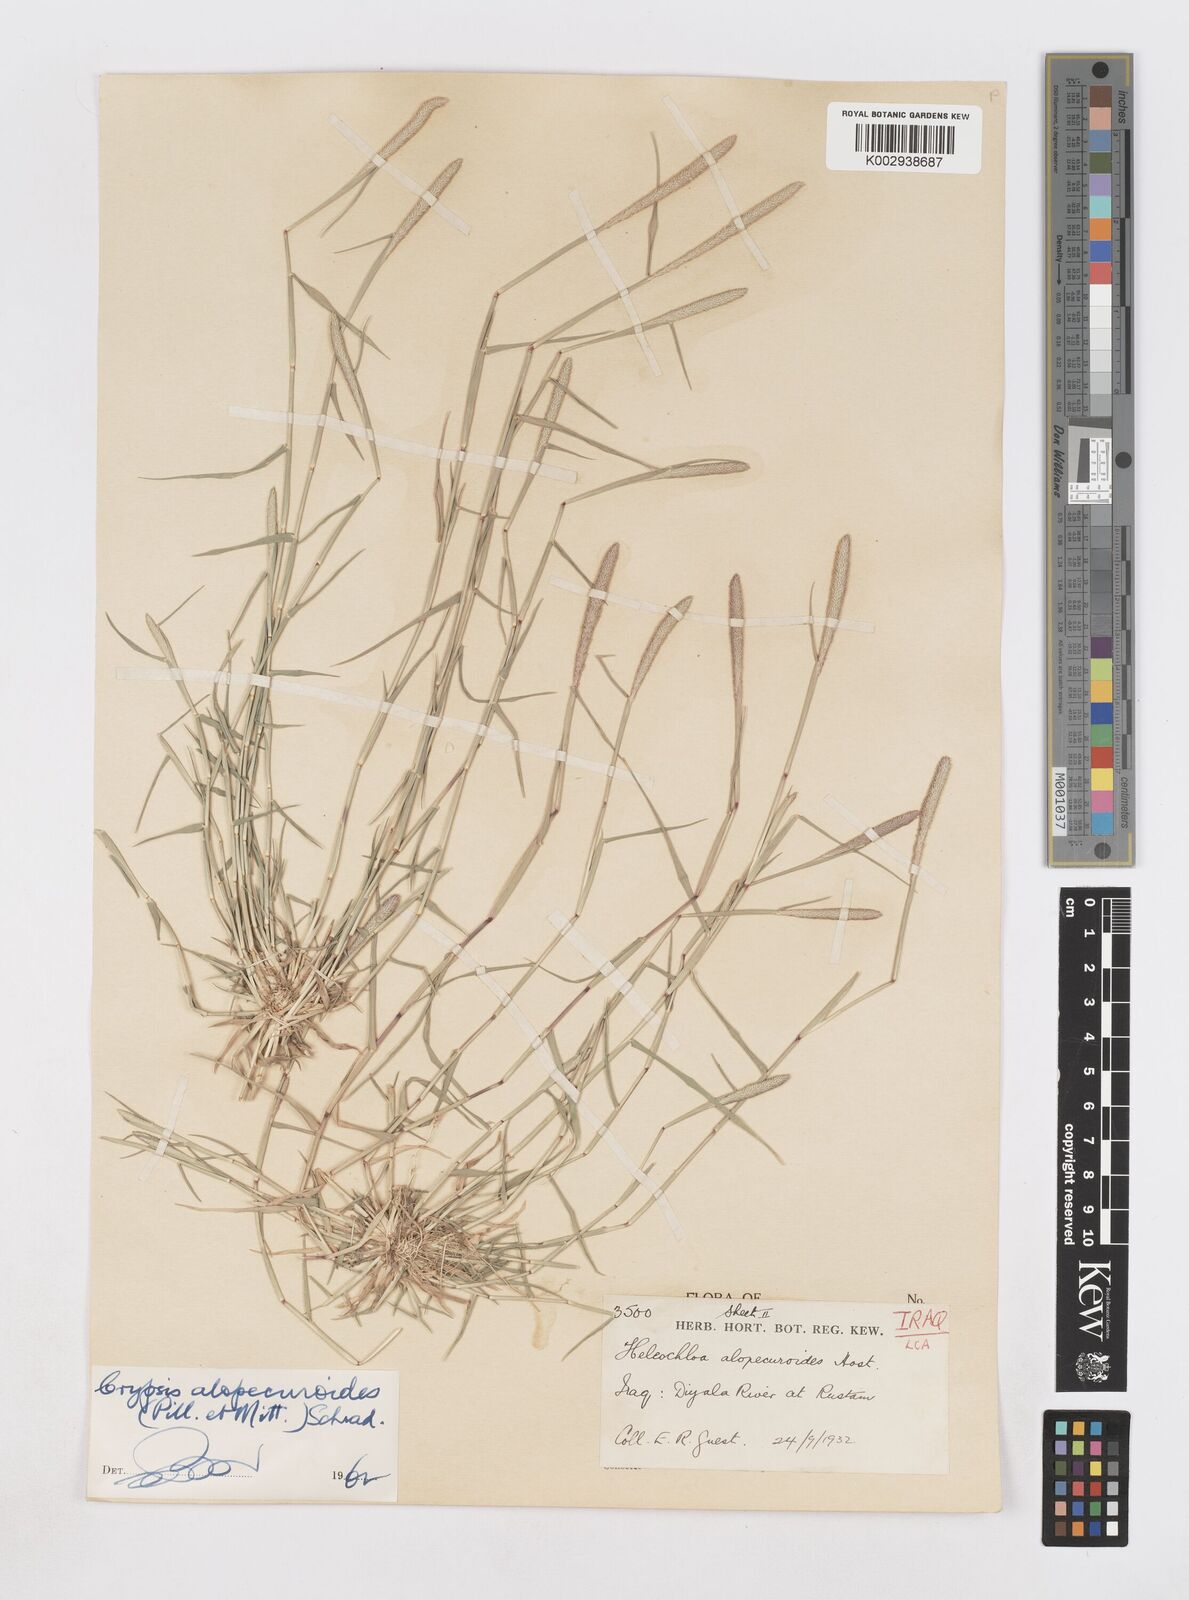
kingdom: Plantae
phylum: Tracheophyta
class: Liliopsida
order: Poales
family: Poaceae
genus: Sporobolus
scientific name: Sporobolus alopecuroides
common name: Foxtail pricklegrass
